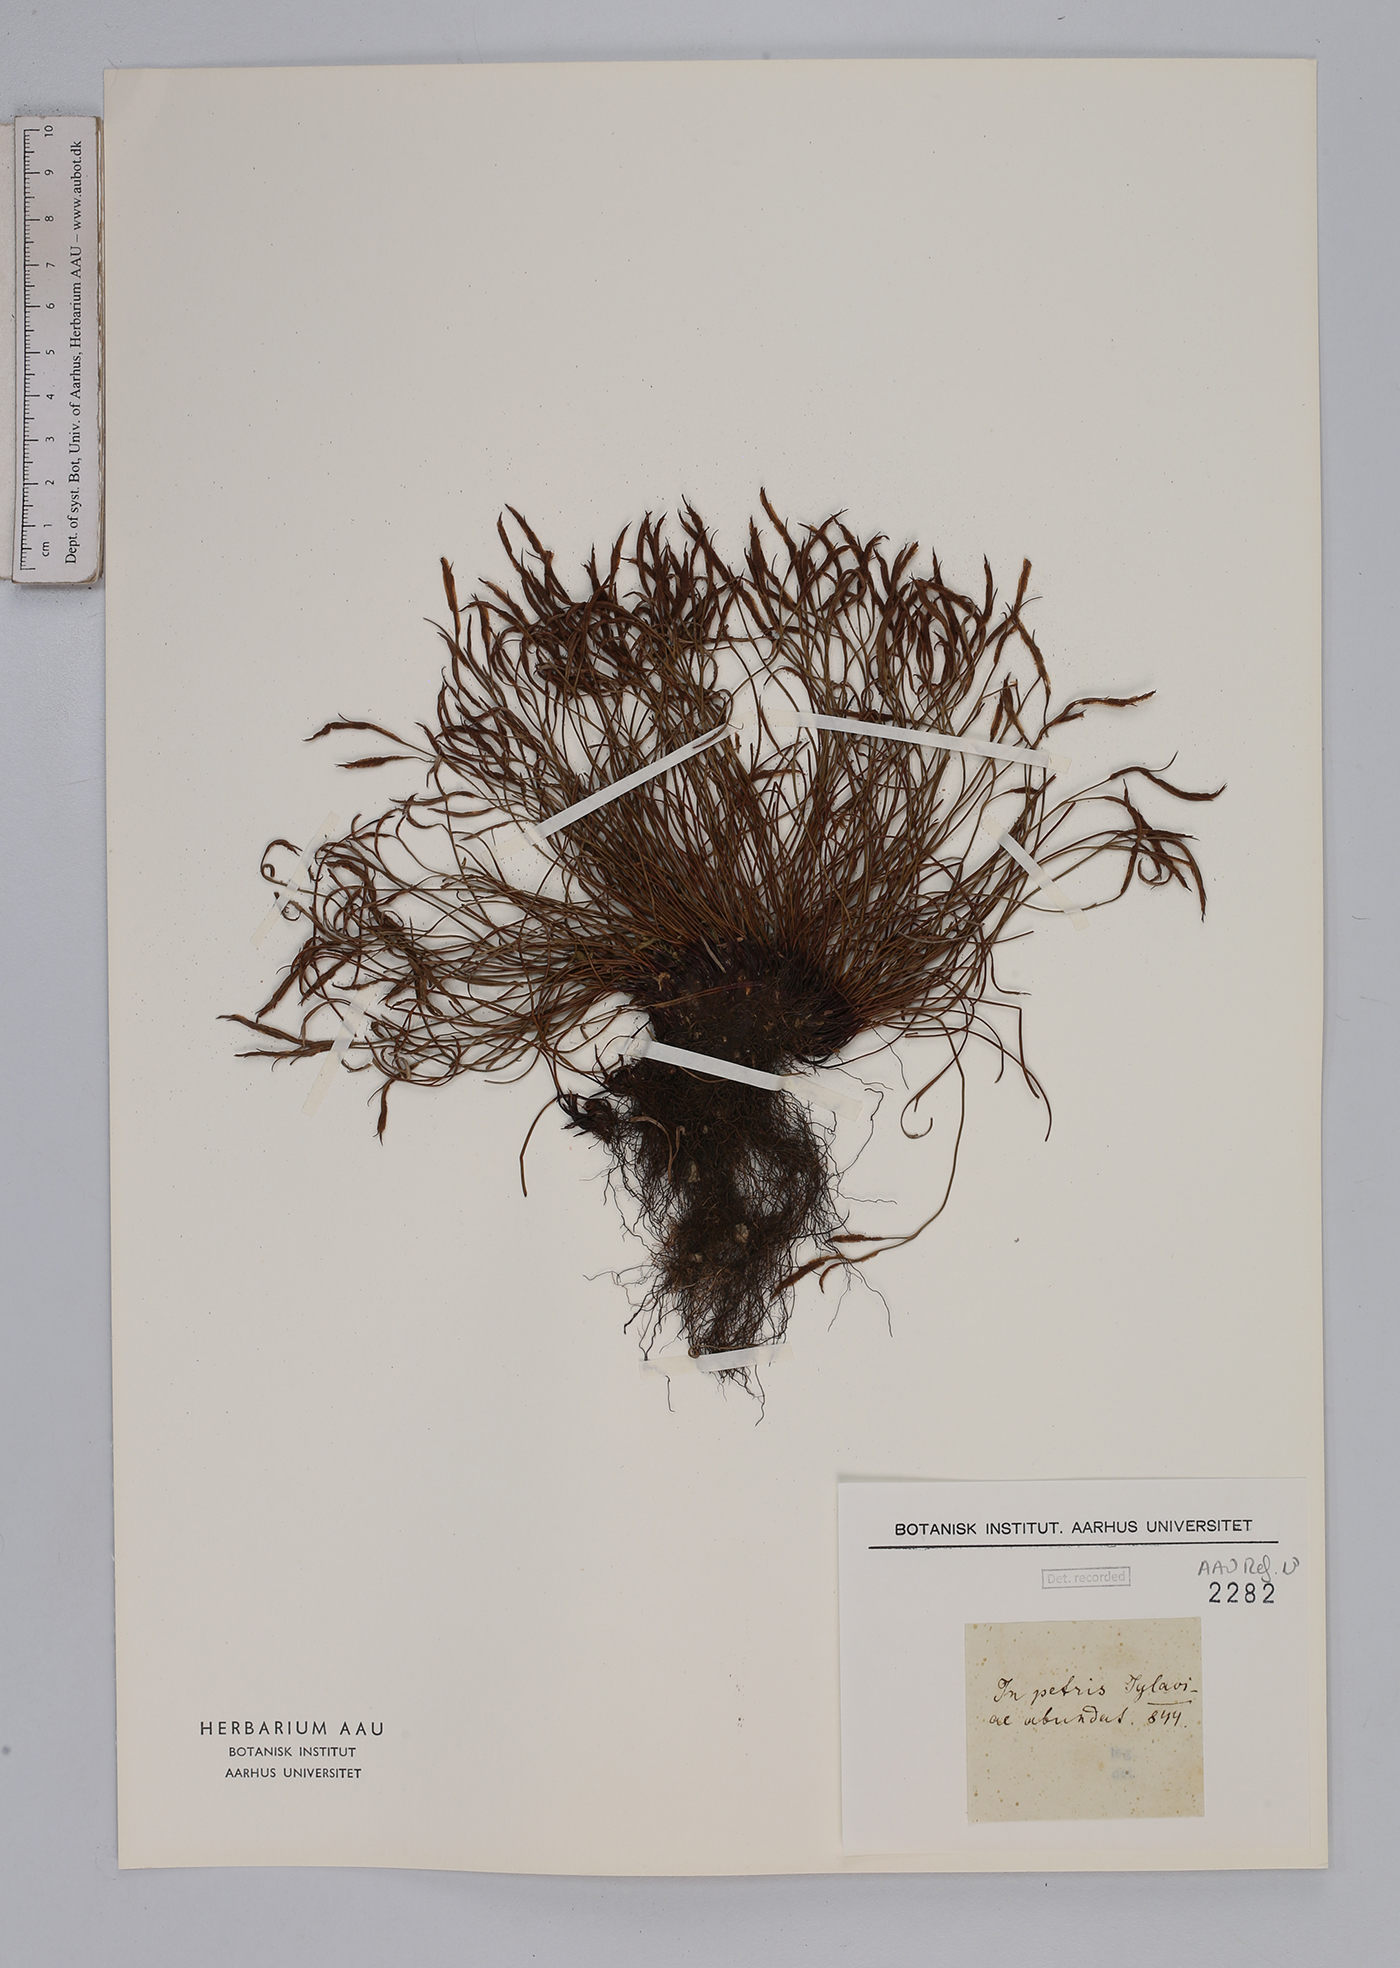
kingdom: Plantae
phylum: Tracheophyta
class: Polypodiopsida
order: Polypodiales
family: Aspleniaceae
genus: Asplenium
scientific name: Asplenium septentrionale
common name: Forked spleenwort
